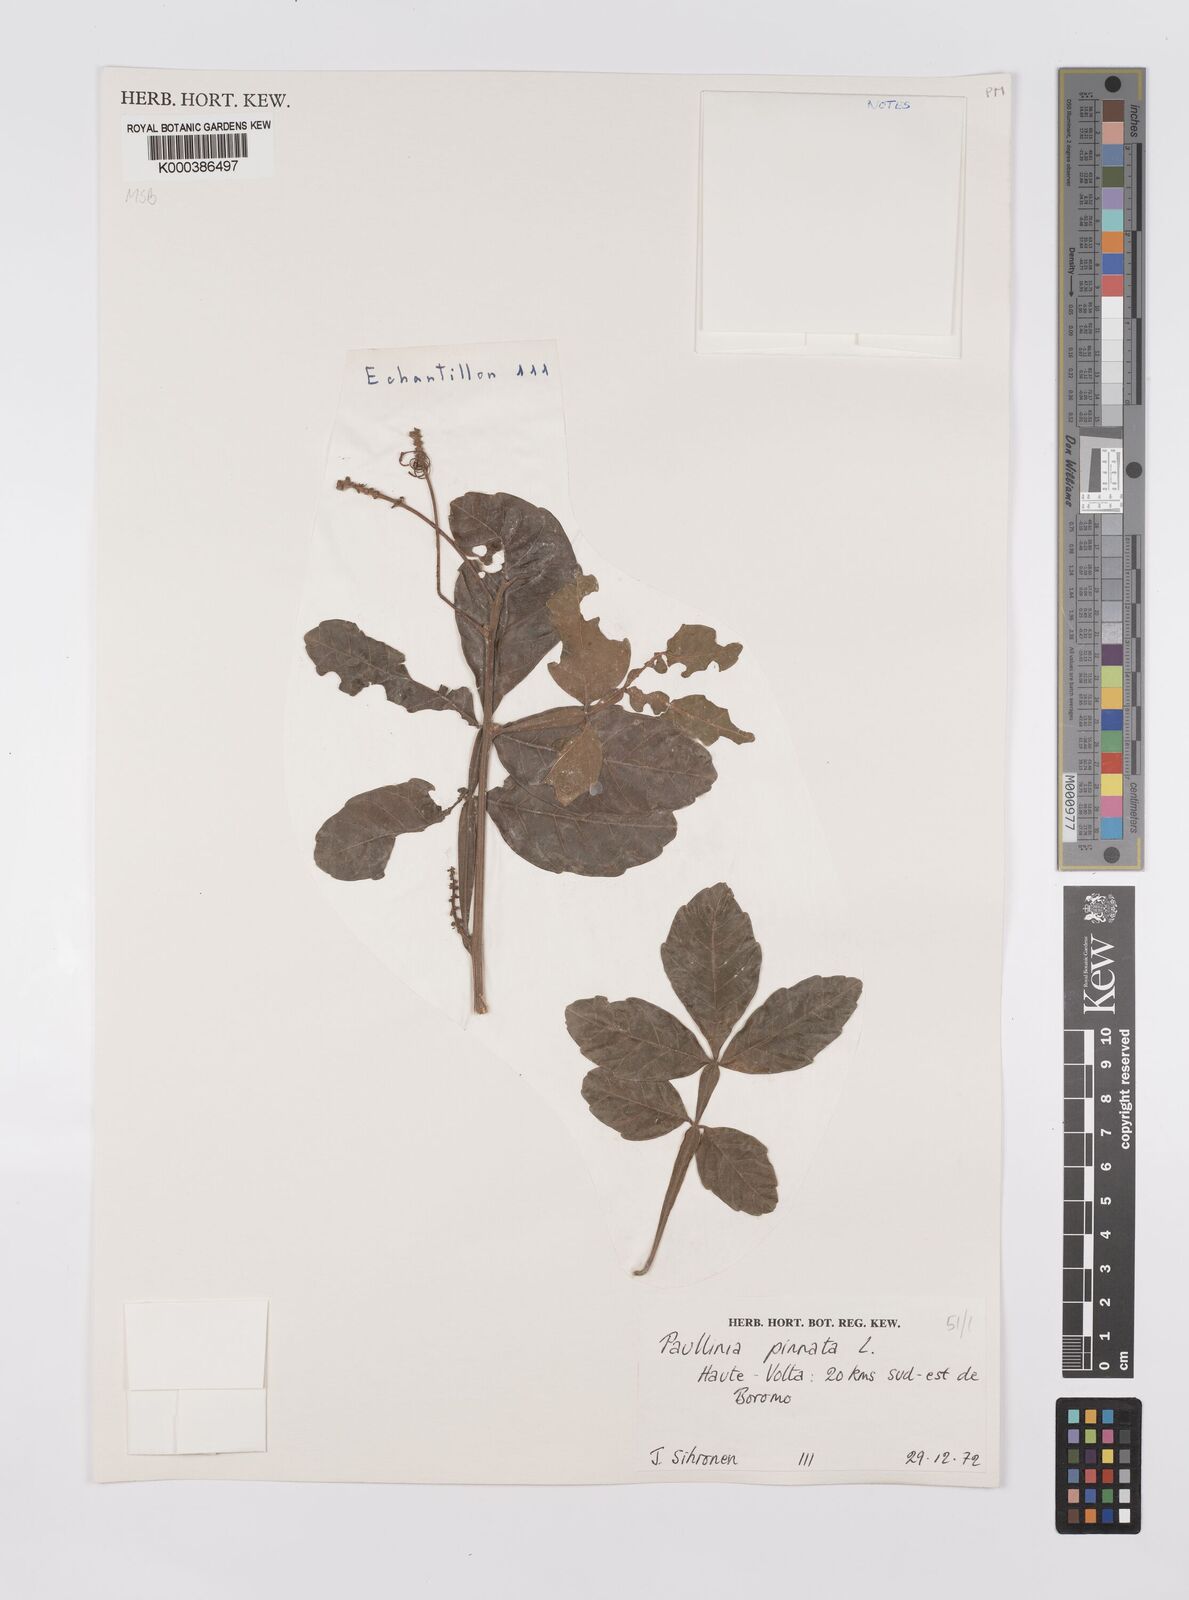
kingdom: Plantae
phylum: Tracheophyta
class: Magnoliopsida
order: Sapindales
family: Sapindaceae
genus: Paullinia
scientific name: Paullinia pinnata
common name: Barbasco
